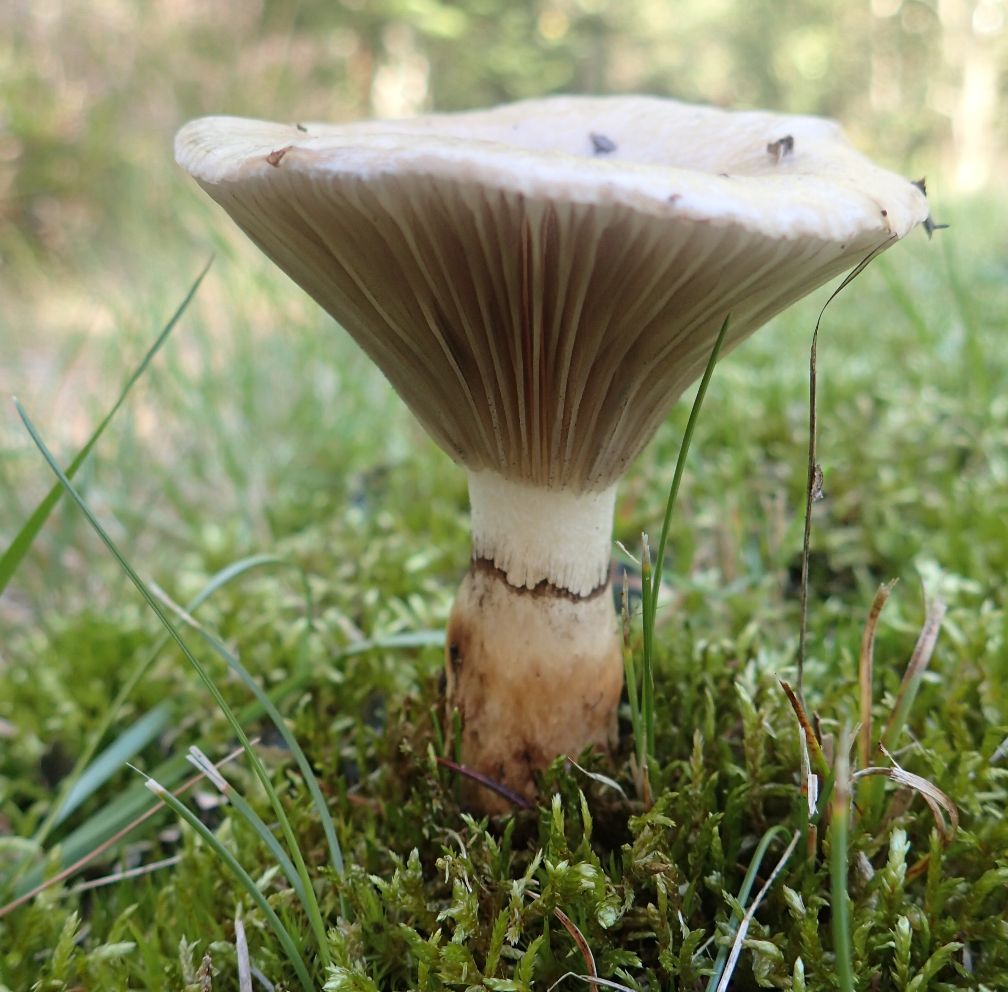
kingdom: Fungi
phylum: Basidiomycota
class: Agaricomycetes
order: Boletales
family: Gomphidiaceae
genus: Gomphidius
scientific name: Gomphidius glutinosus
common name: grå slimslør
